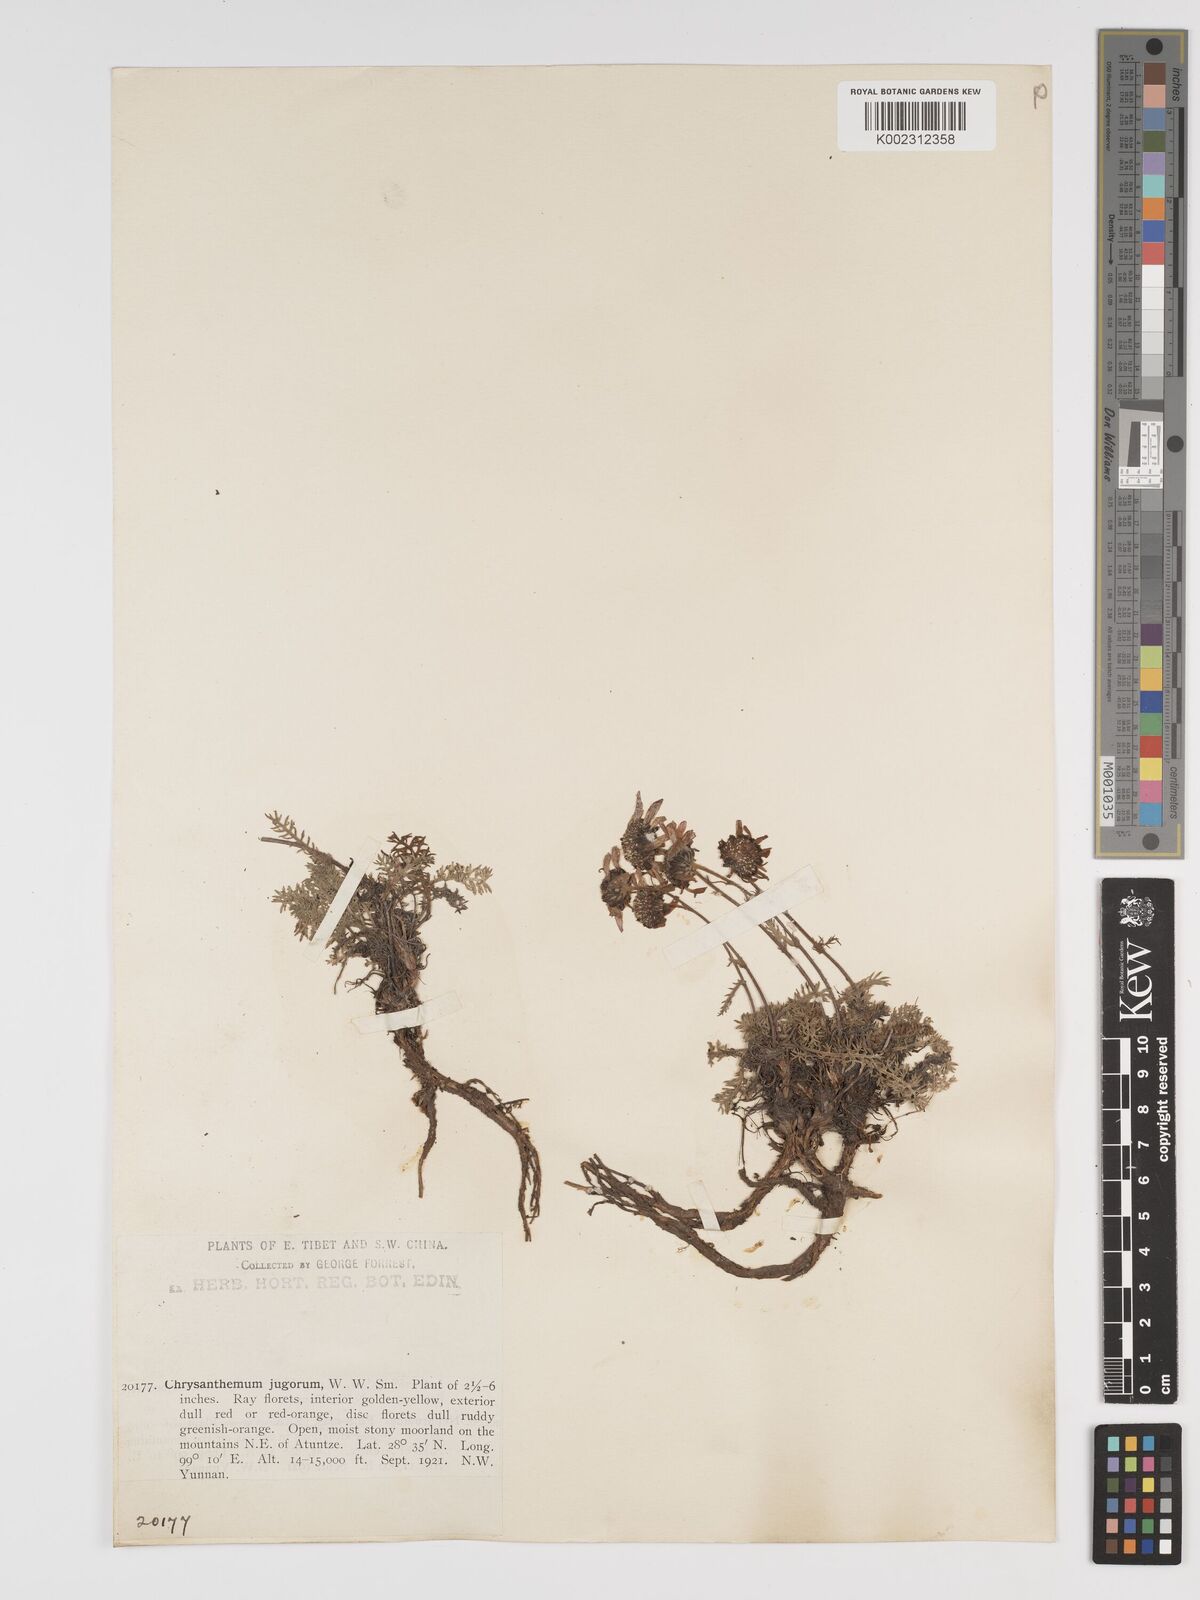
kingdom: Plantae
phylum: Tracheophyta
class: Magnoliopsida
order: Asterales
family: Asteraceae
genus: Tanacetum
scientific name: Tanacetum tatsienense
